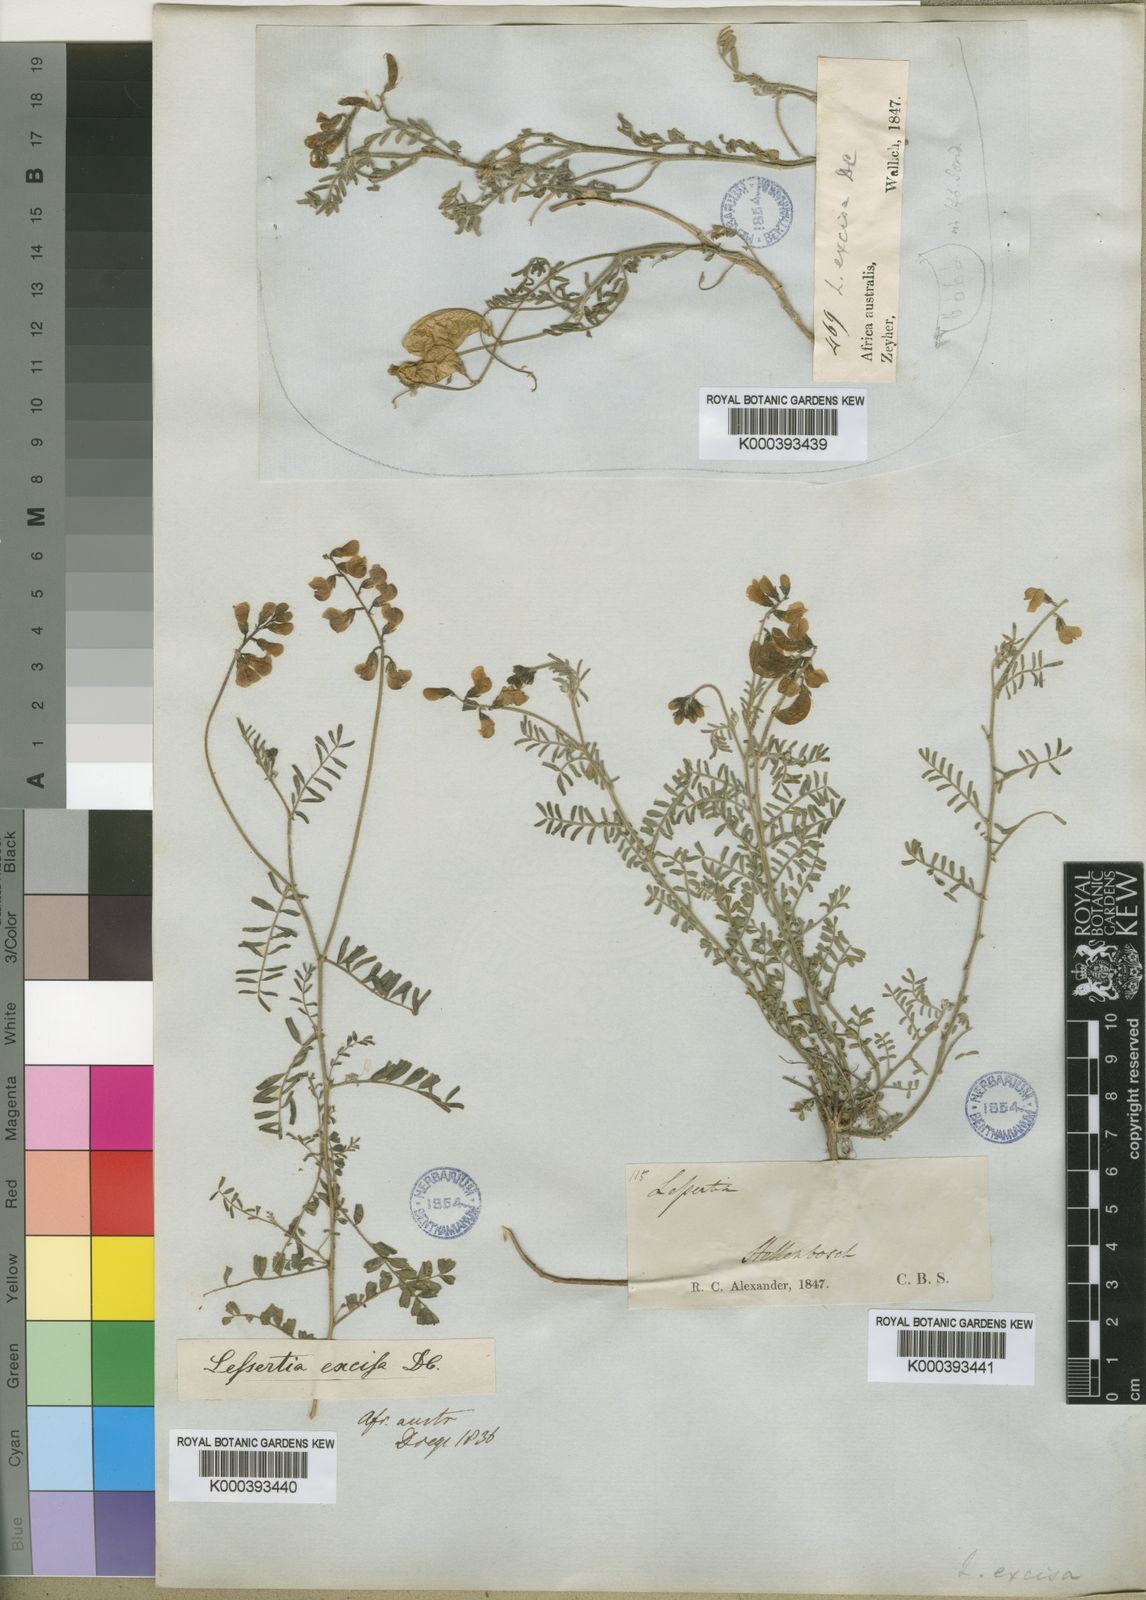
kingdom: Plantae
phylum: Tracheophyta
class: Magnoliopsida
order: Fabales
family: Fabaceae
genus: Lessertia
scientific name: Lessertia excisa
